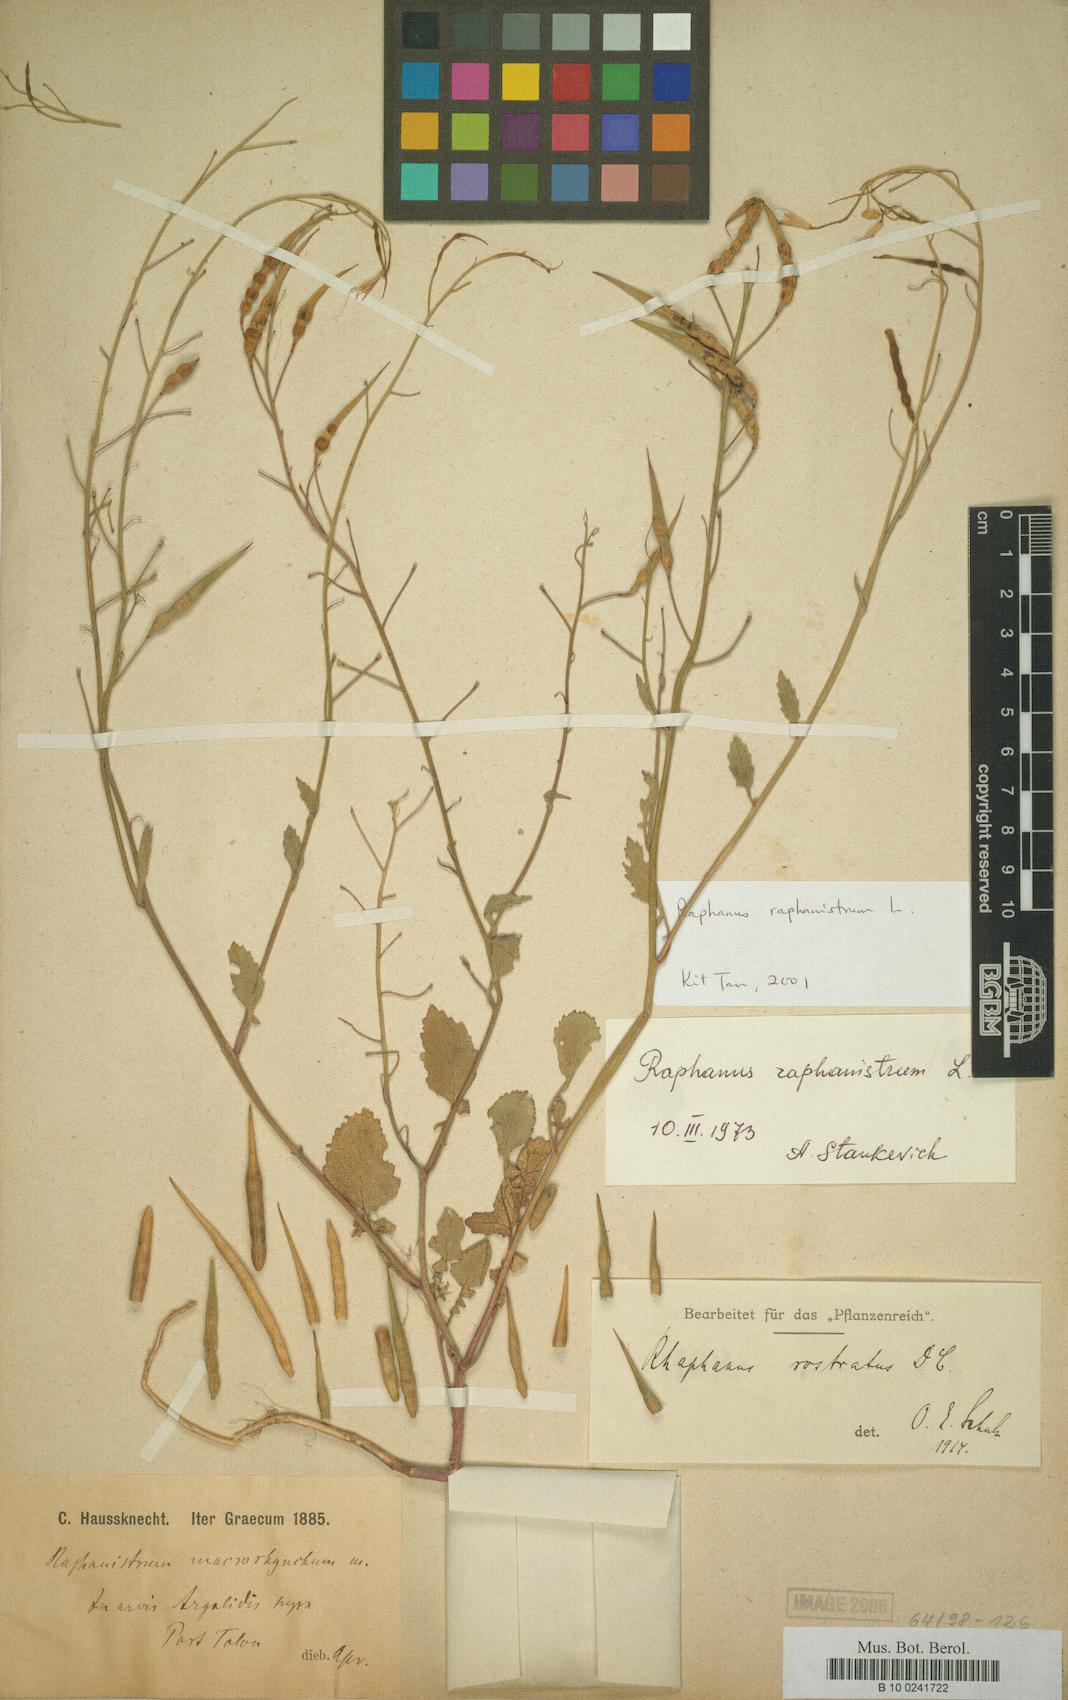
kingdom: Plantae
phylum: Tracheophyta
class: Magnoliopsida
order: Brassicales
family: Brassicaceae
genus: Raphanus
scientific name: Raphanus raphanistrum
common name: Wild radish
